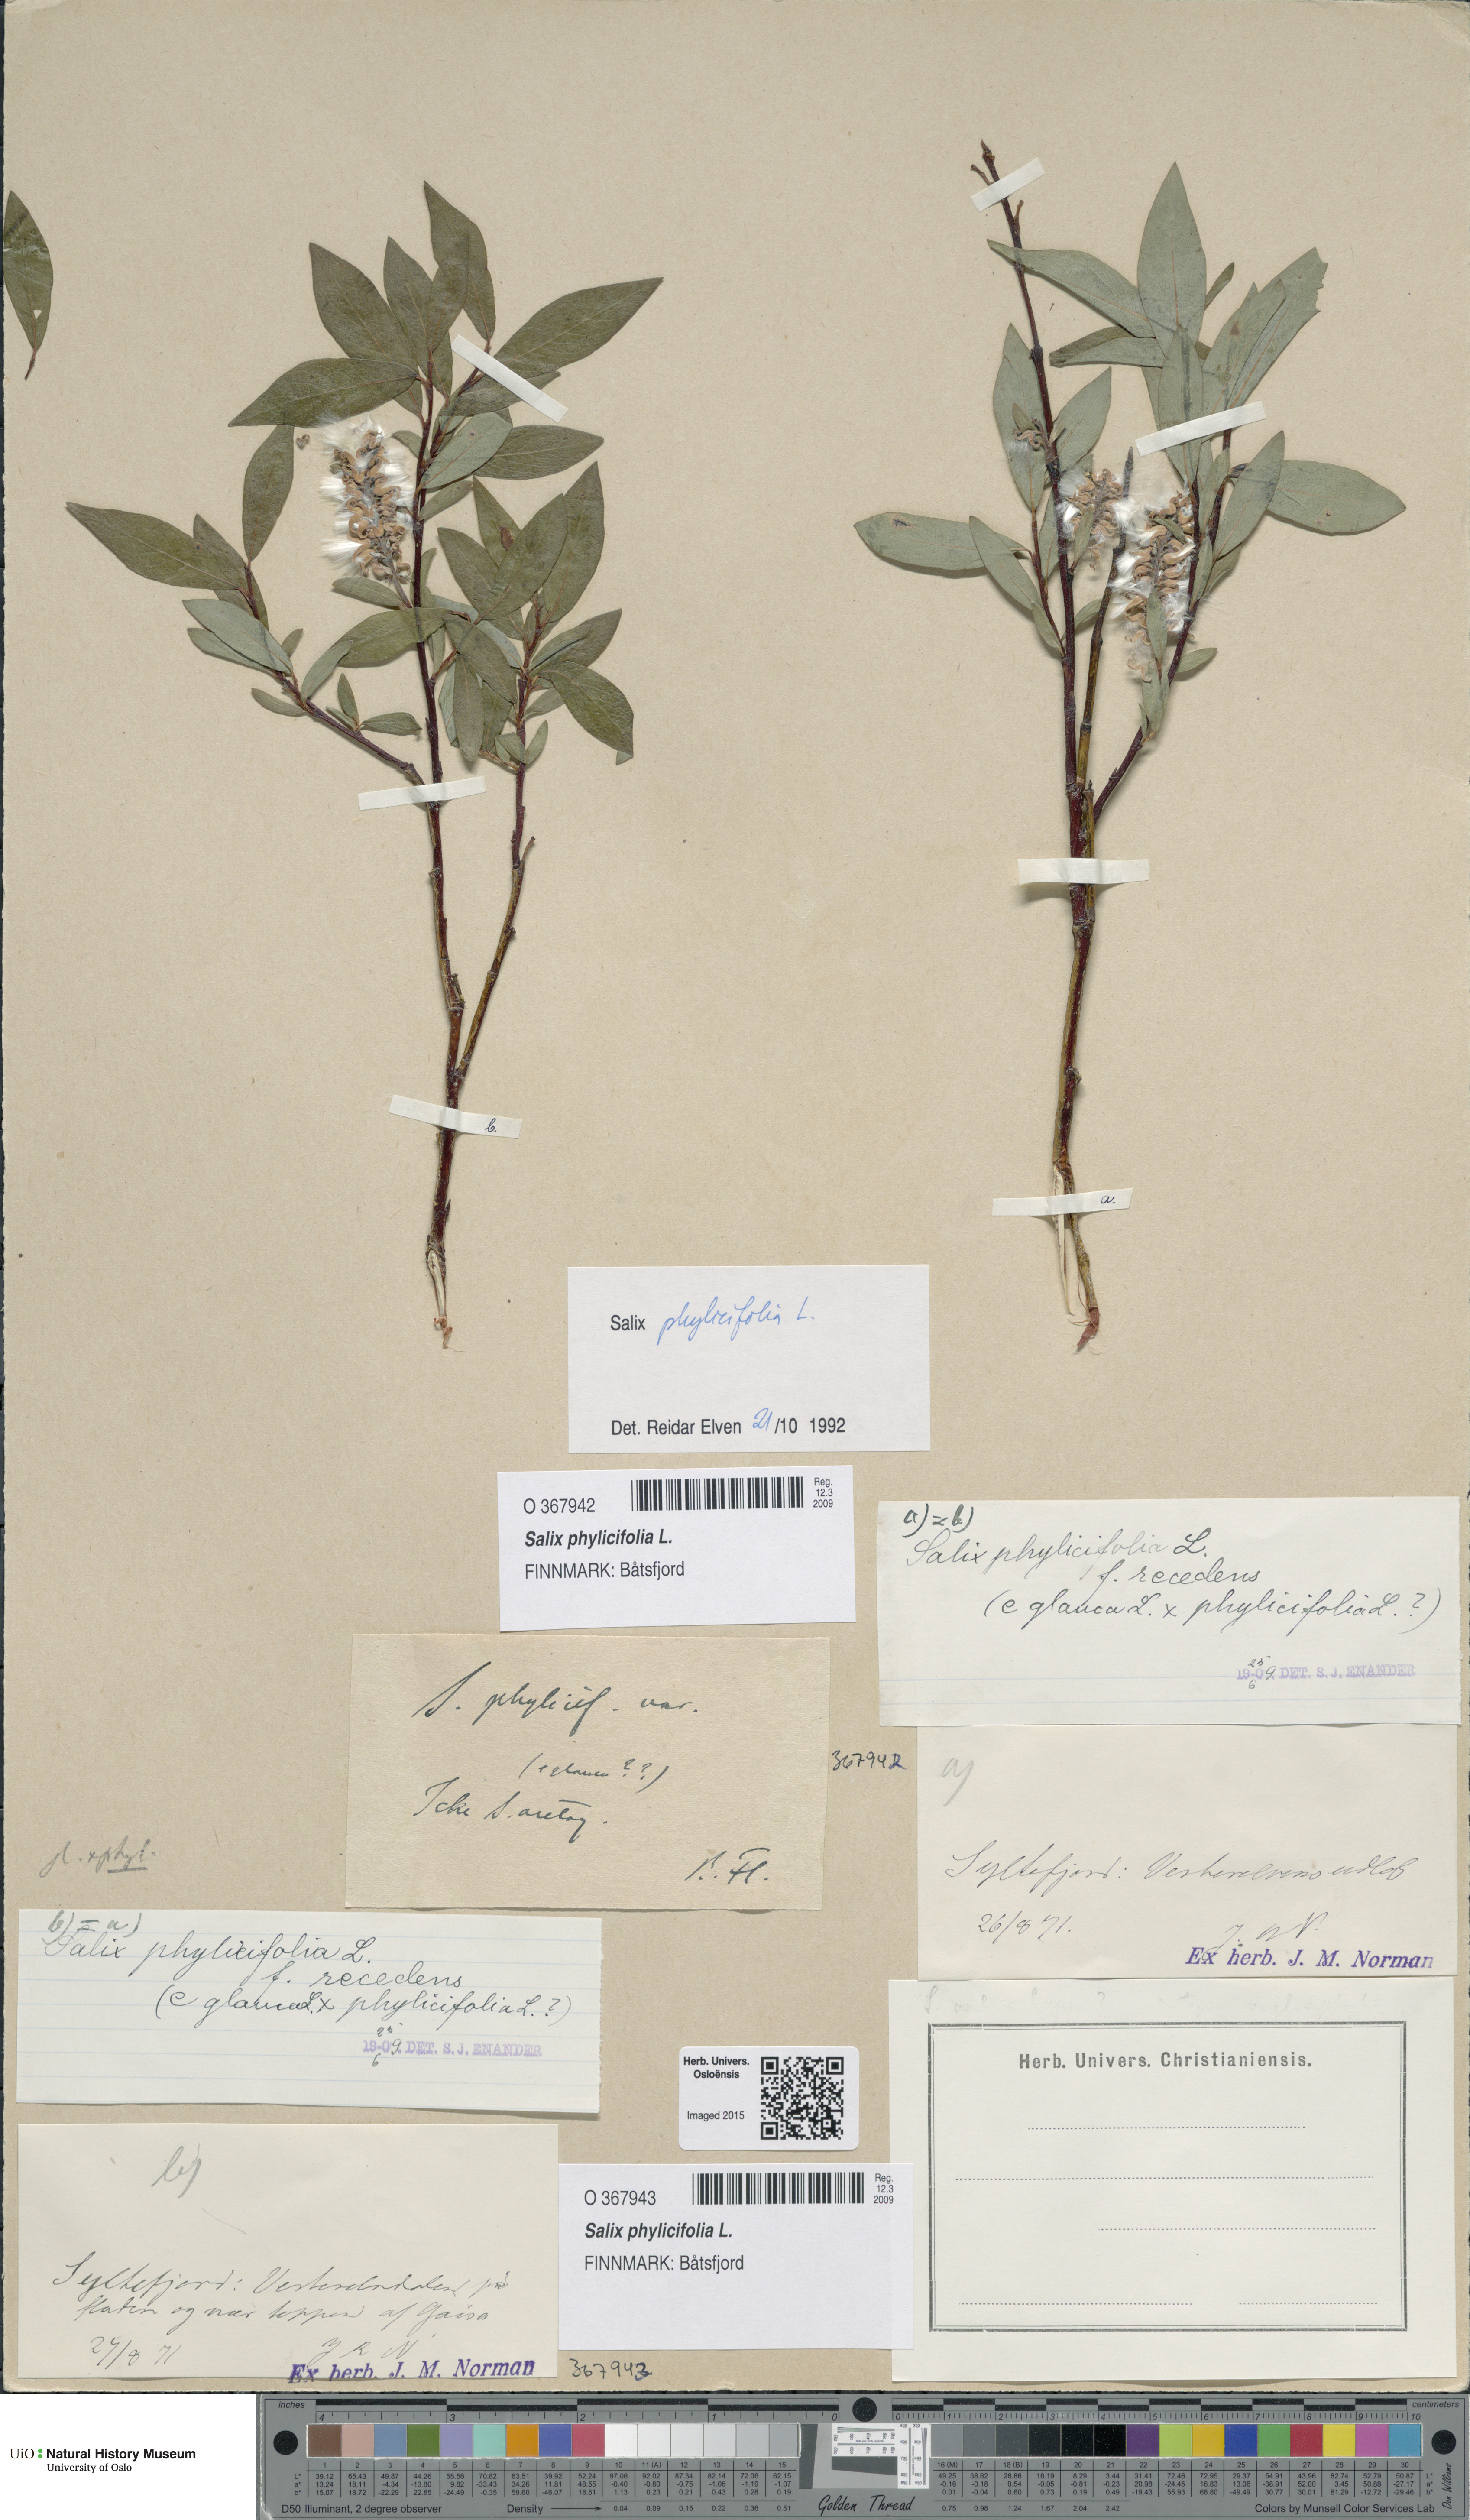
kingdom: Plantae
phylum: Tracheophyta
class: Magnoliopsida
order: Malpighiales
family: Salicaceae
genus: Salix
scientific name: Salix phylicifolia
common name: Tea-leaved willow
